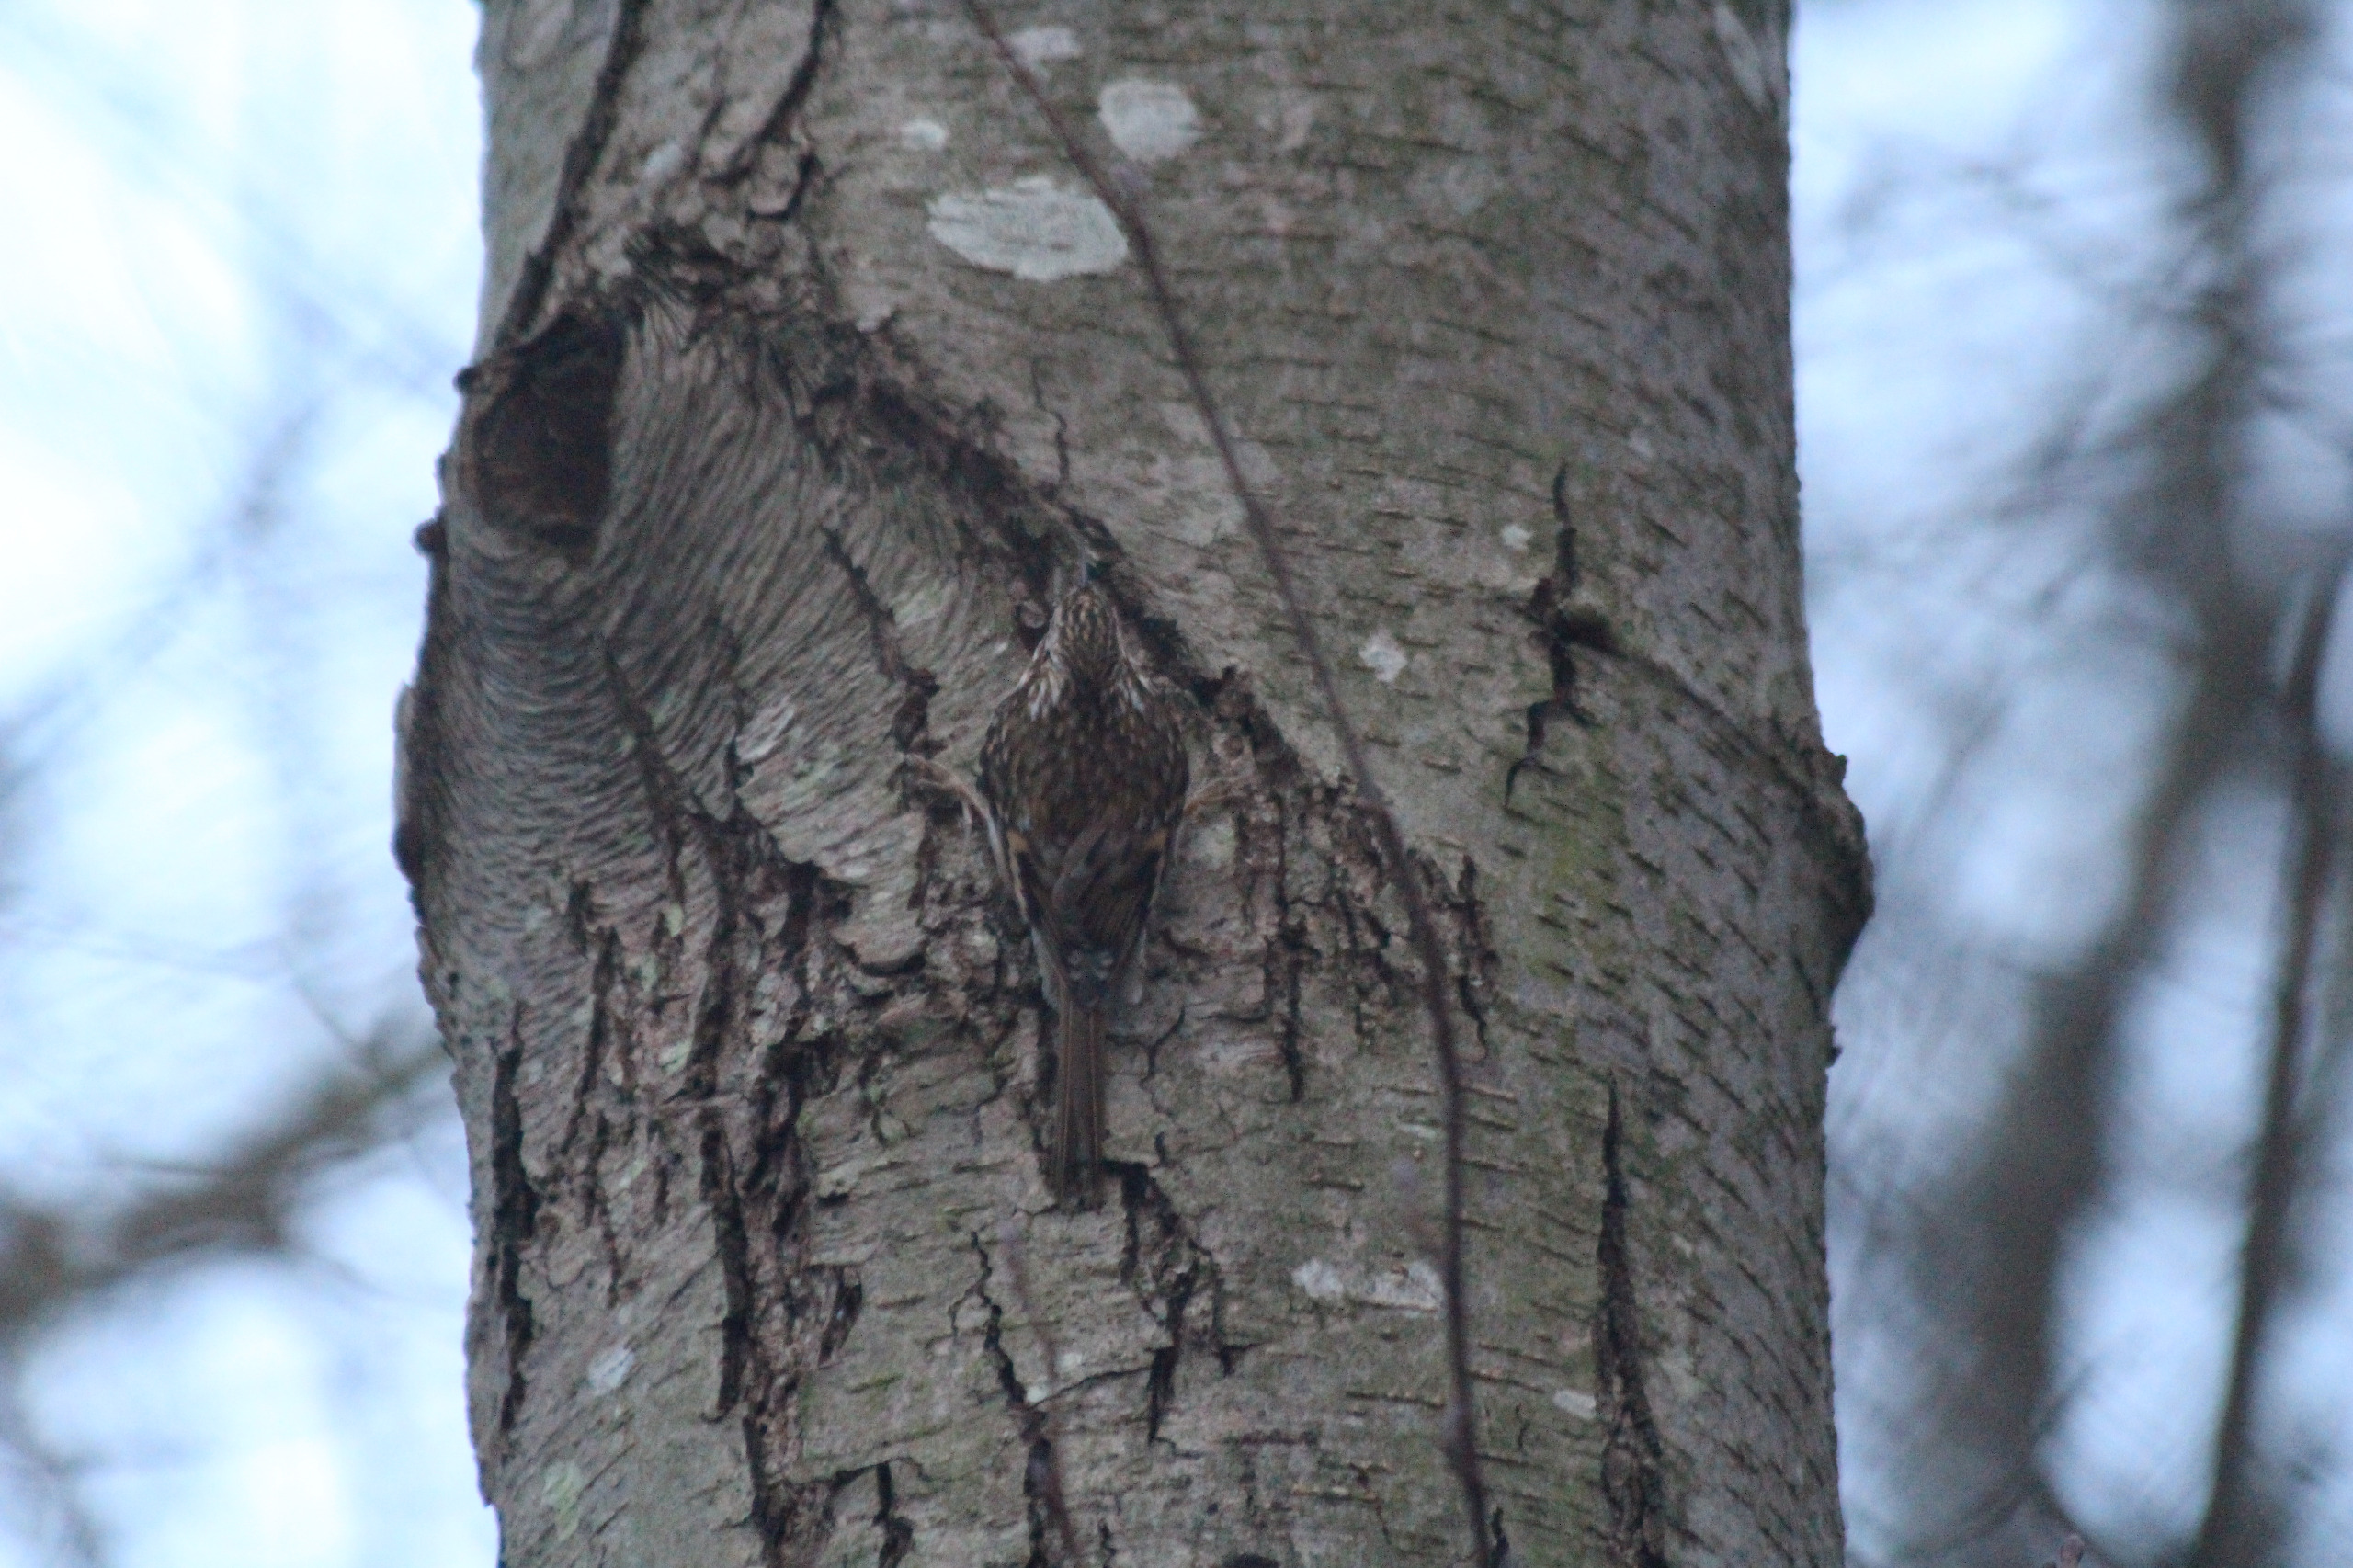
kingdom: Animalia
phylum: Chordata
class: Aves
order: Passeriformes
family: Certhiidae
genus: Certhia
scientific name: Certhia familiaris
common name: Træløber
